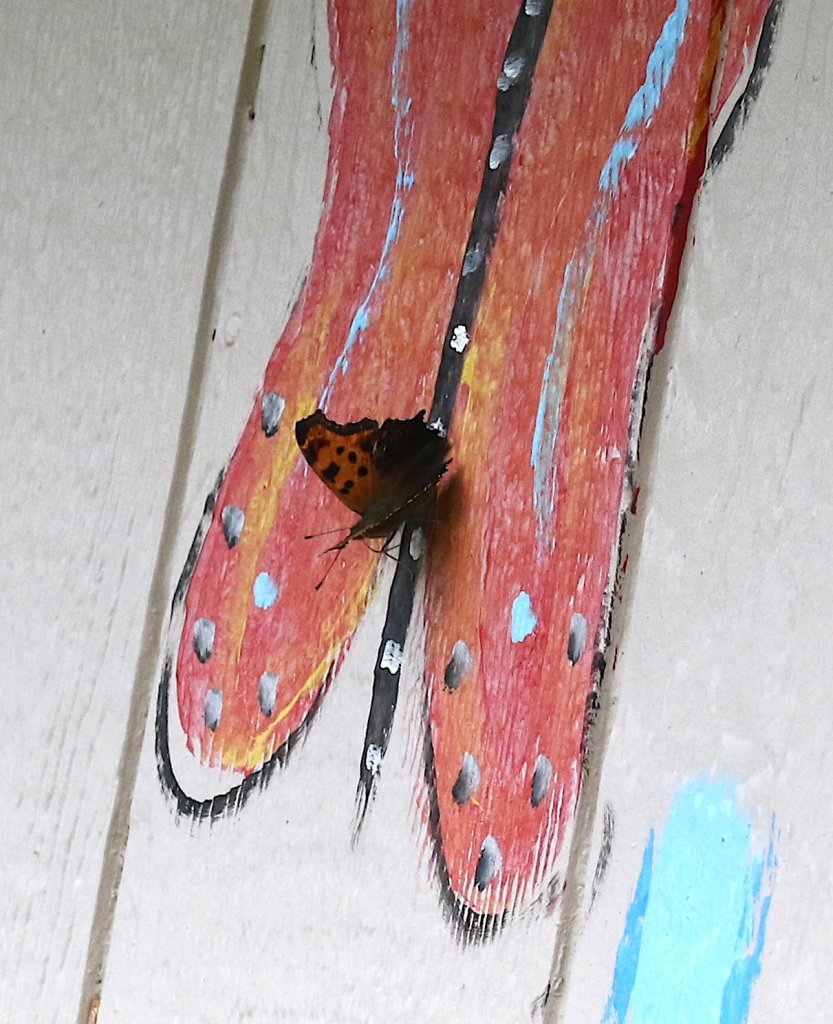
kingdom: Animalia
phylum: Arthropoda
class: Insecta
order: Lepidoptera
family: Nymphalidae
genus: Polygonia
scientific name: Polygonia comma
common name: Eastern Comma
